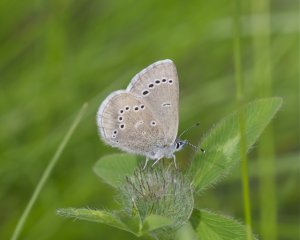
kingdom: Animalia
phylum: Arthropoda
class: Insecta
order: Lepidoptera
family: Lycaenidae
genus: Glaucopsyche
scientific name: Glaucopsyche lygdamus
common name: Silvery Blue
